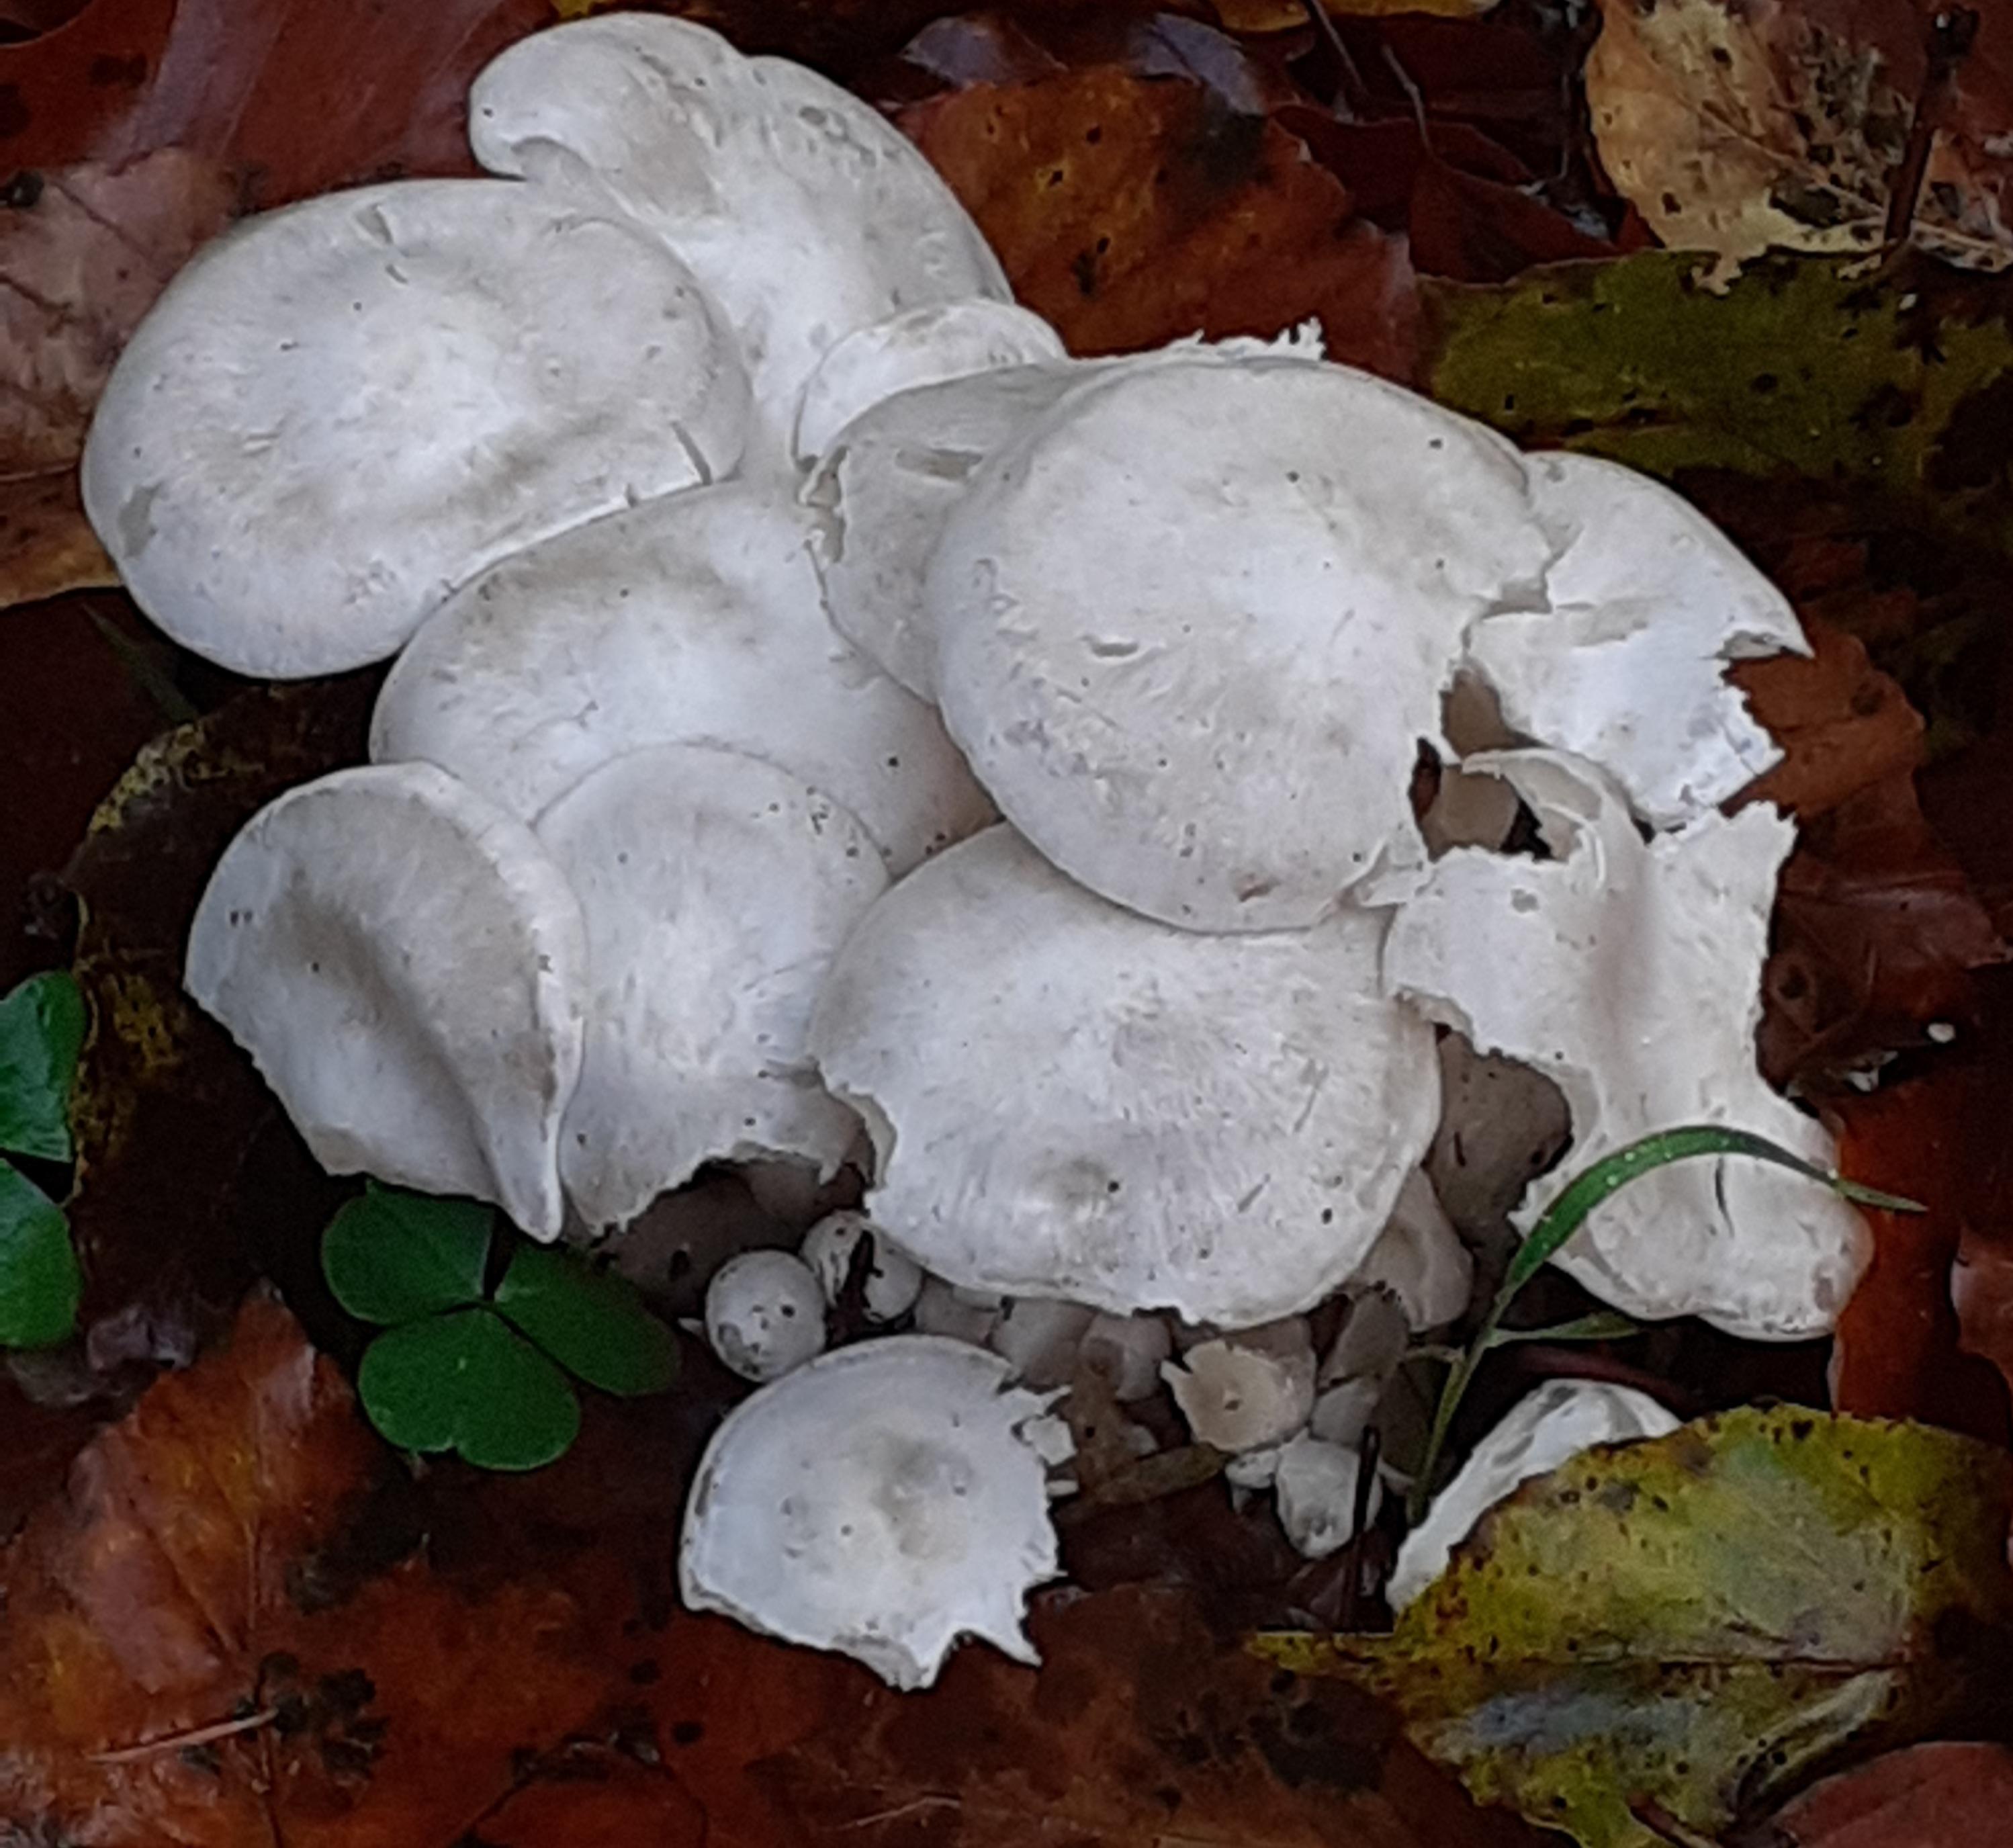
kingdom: Fungi
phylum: Basidiomycota
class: Agaricomycetes
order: Agaricales
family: Tricholomataceae
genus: Leucocybe
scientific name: Leucocybe connata
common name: knippe-tragthat
